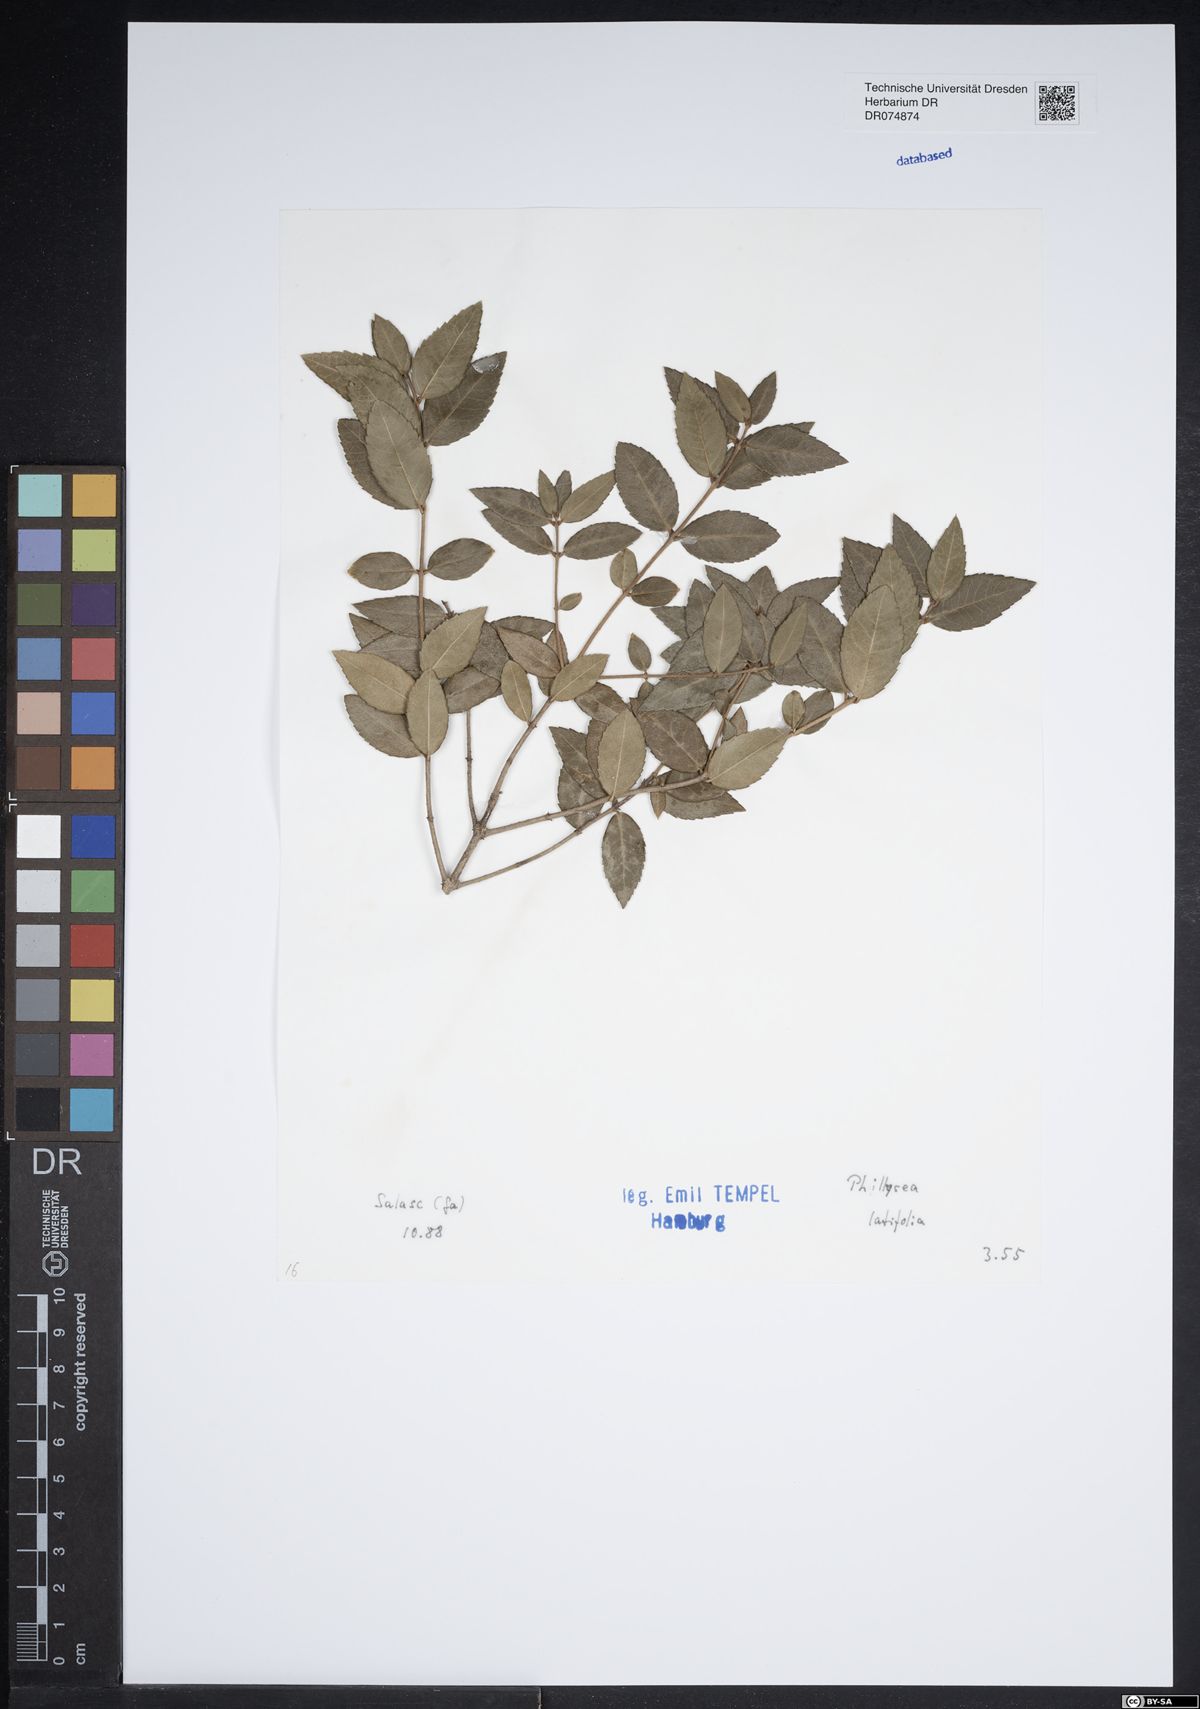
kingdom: Plantae
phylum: Tracheophyta
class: Magnoliopsida
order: Lamiales
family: Oleaceae
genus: Phillyrea
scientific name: Phillyrea latifolia
